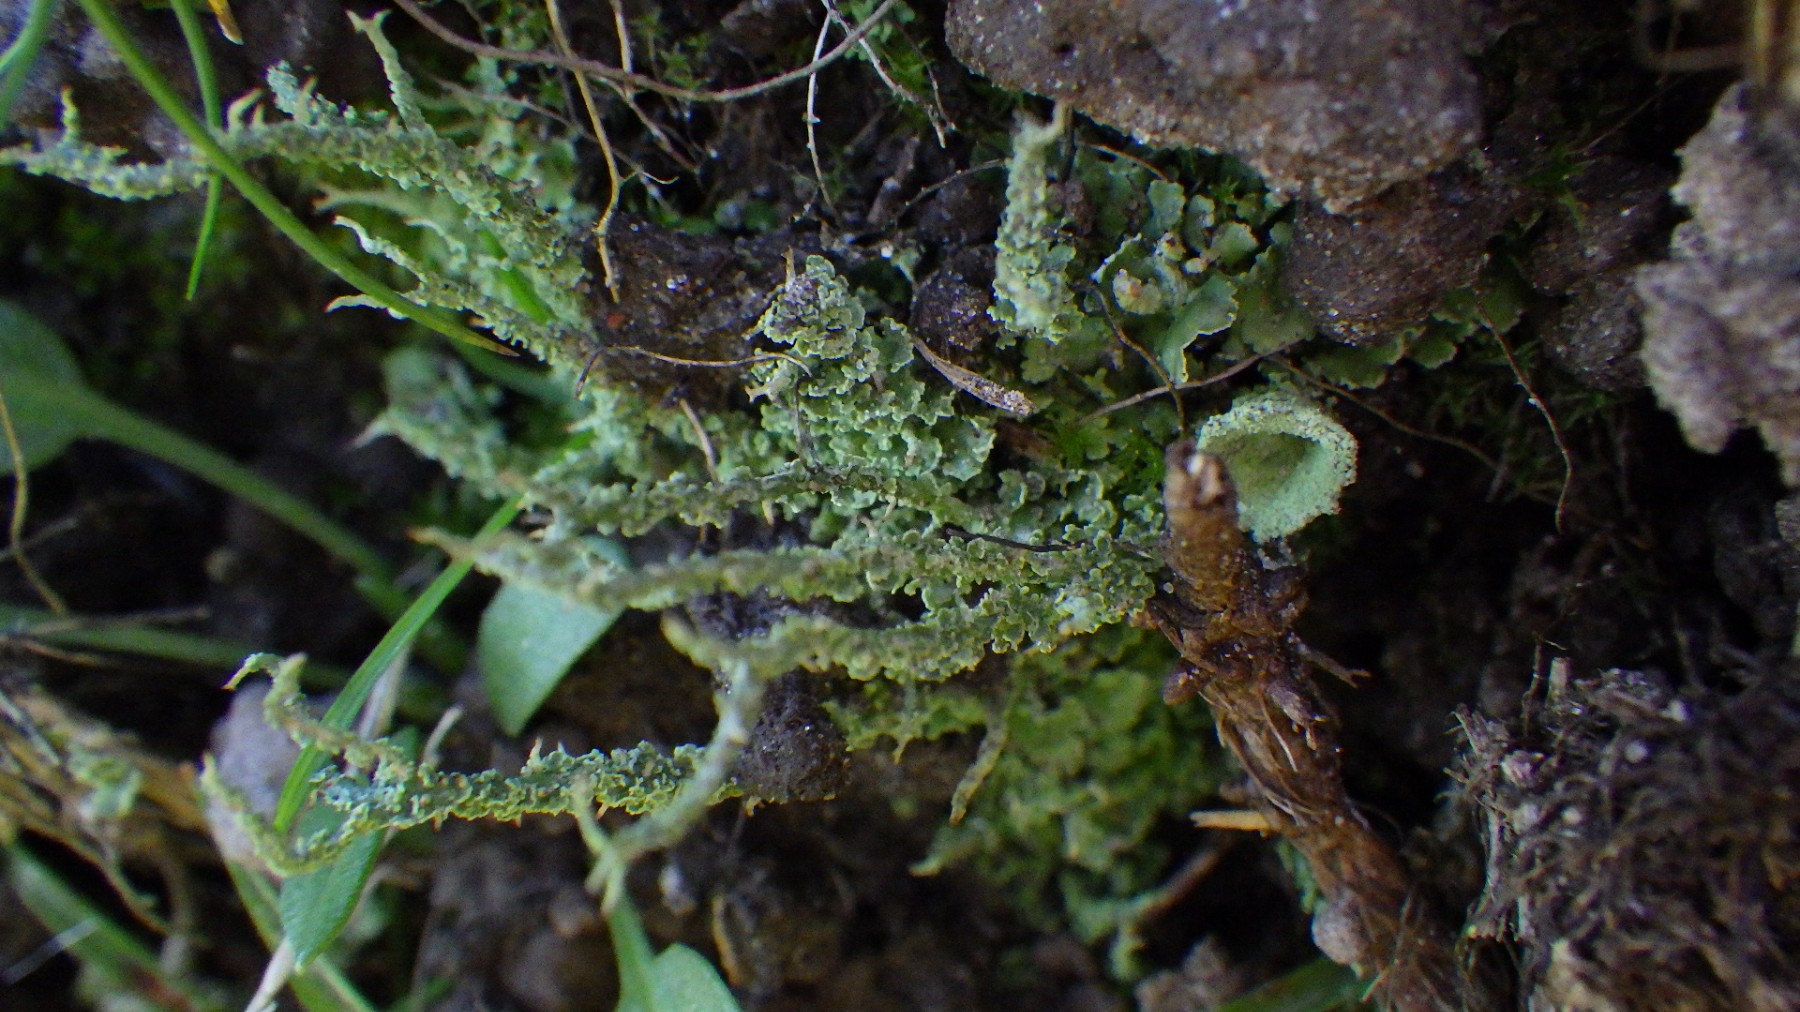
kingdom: Fungi
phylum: Ascomycota
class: Lecanoromycetes
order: Lecanorales
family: Cladoniaceae
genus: Cladonia
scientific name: Cladonia scabriuscula
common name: ru bægerlav
